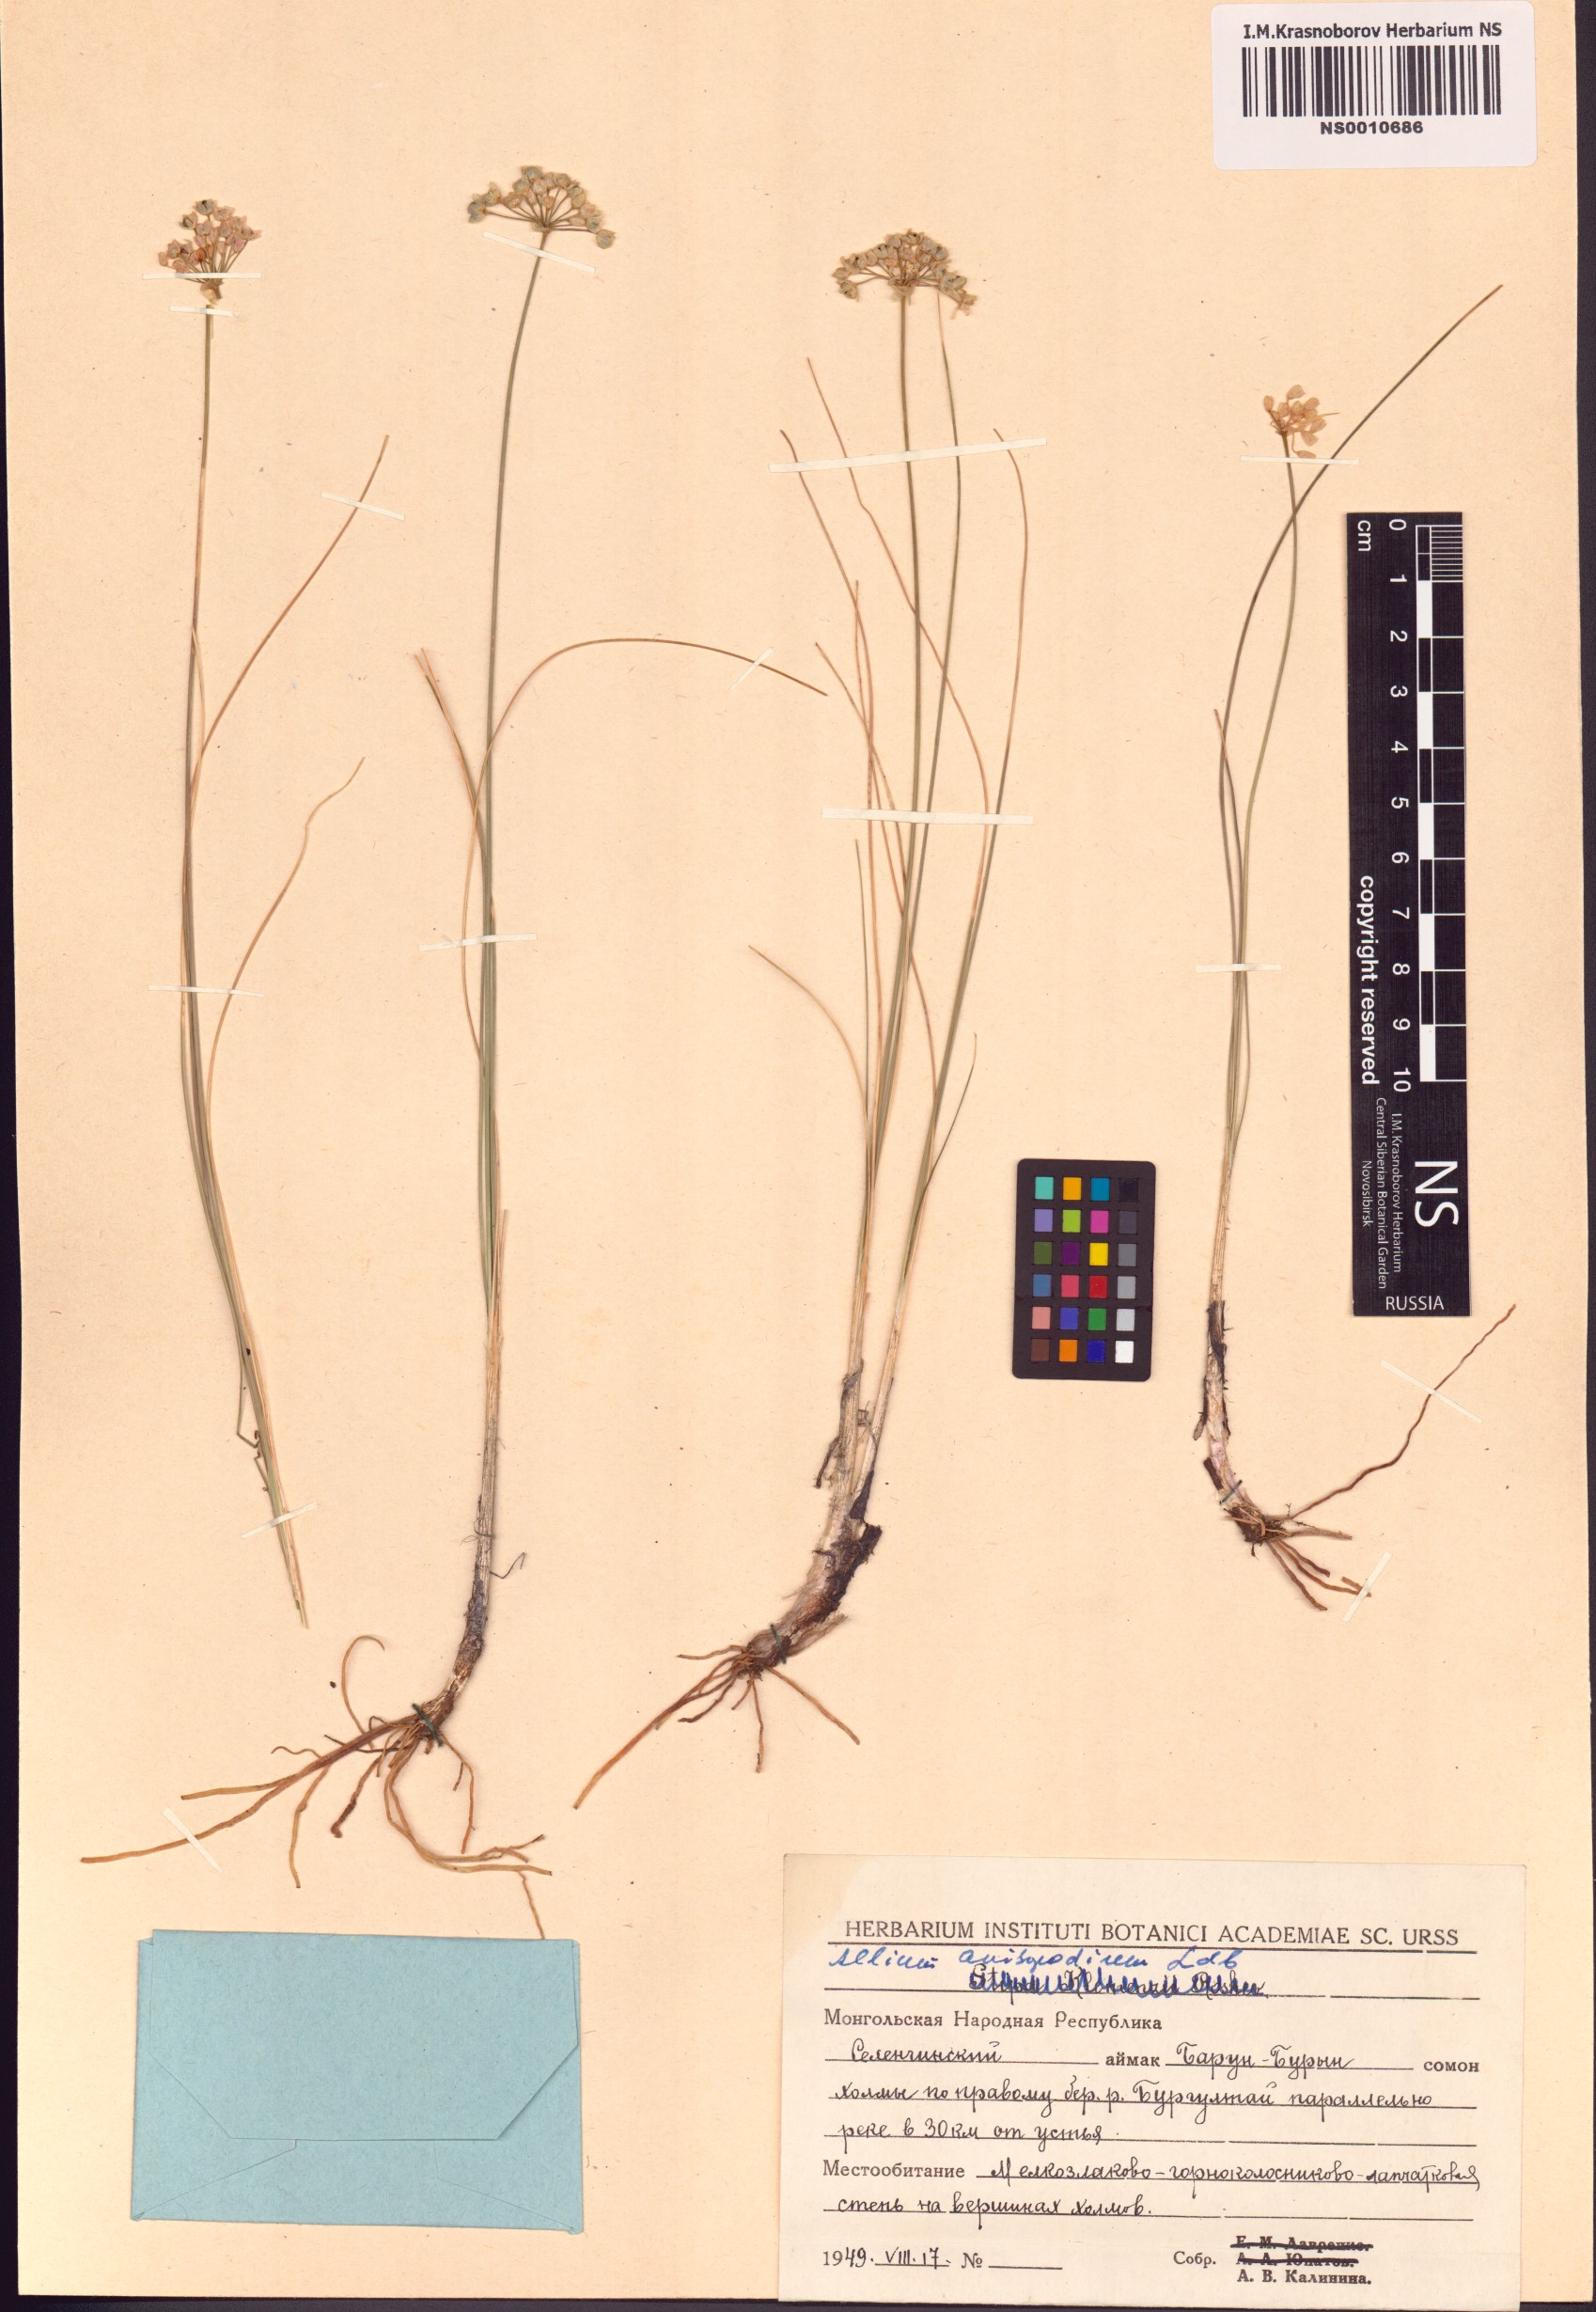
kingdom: Plantae
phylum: Tracheophyta
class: Liliopsida
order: Asparagales
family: Amaryllidaceae
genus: Allium
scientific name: Allium anisopodium
